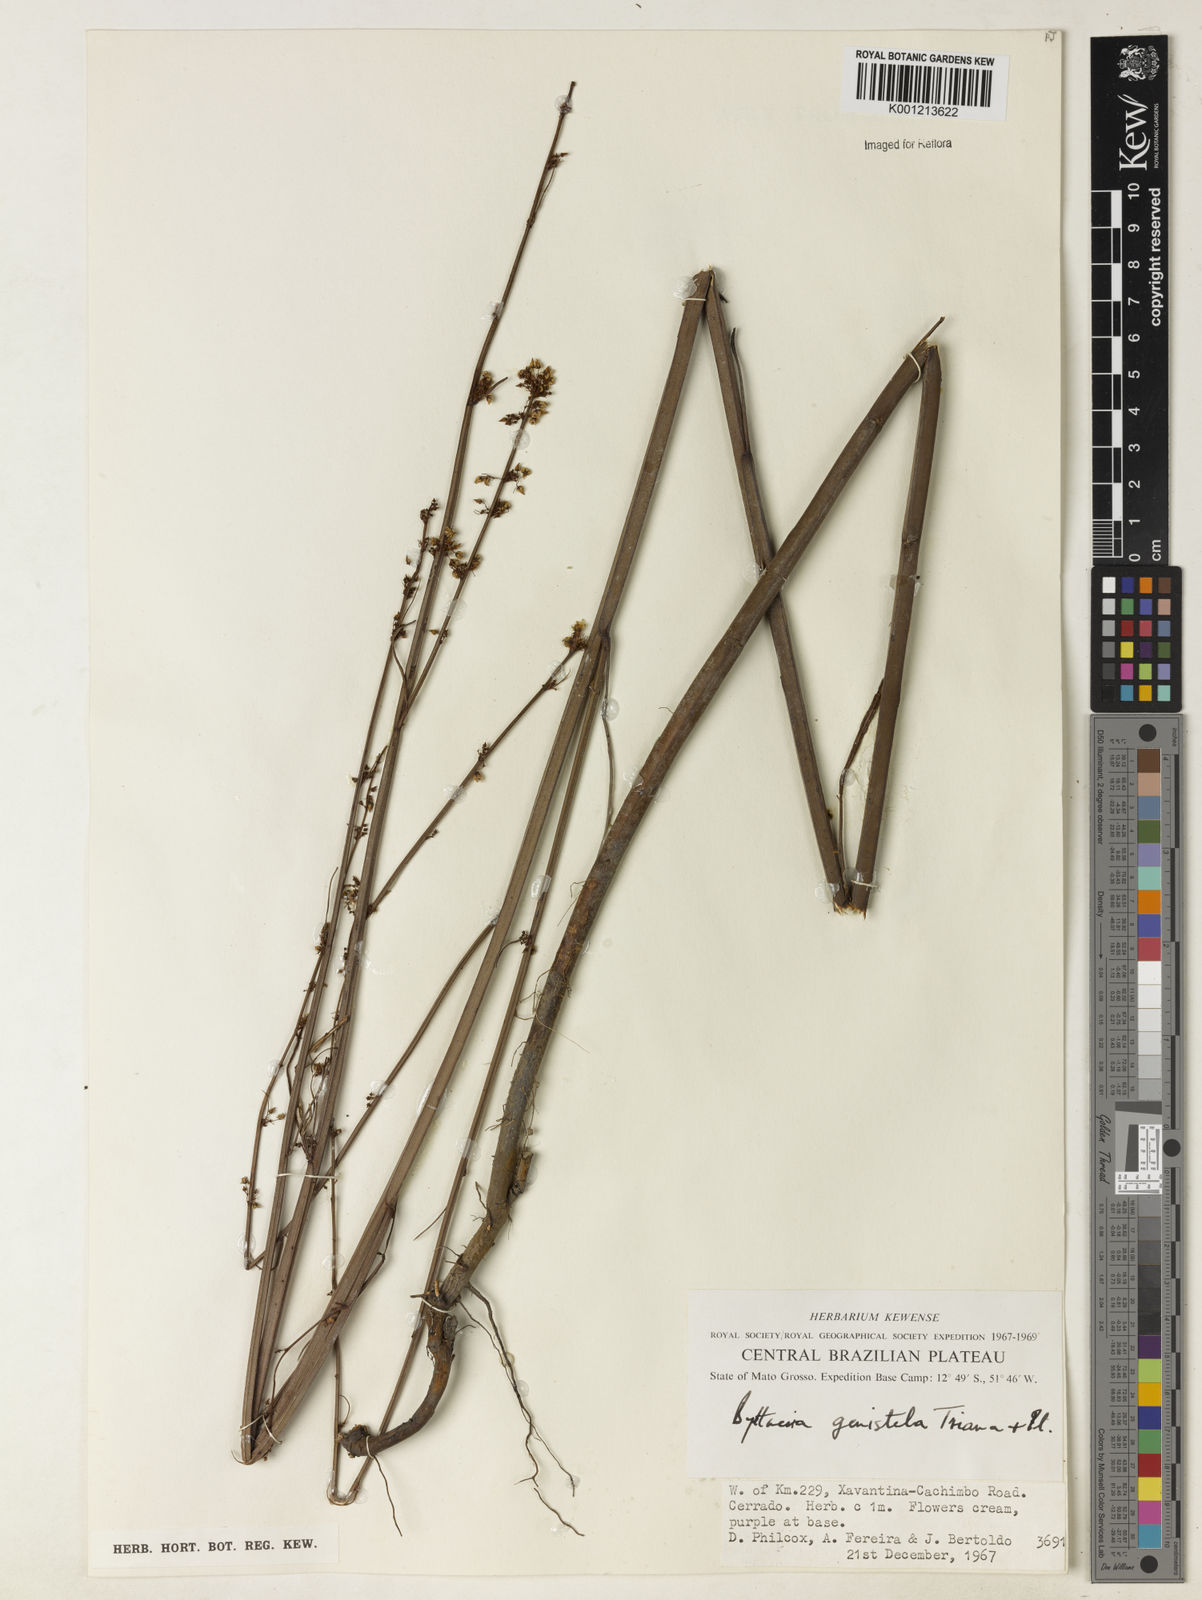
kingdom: Plantae
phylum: Tracheophyta
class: Magnoliopsida
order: Malvales
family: Malvaceae
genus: Byttneria
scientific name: Byttneria genistella
